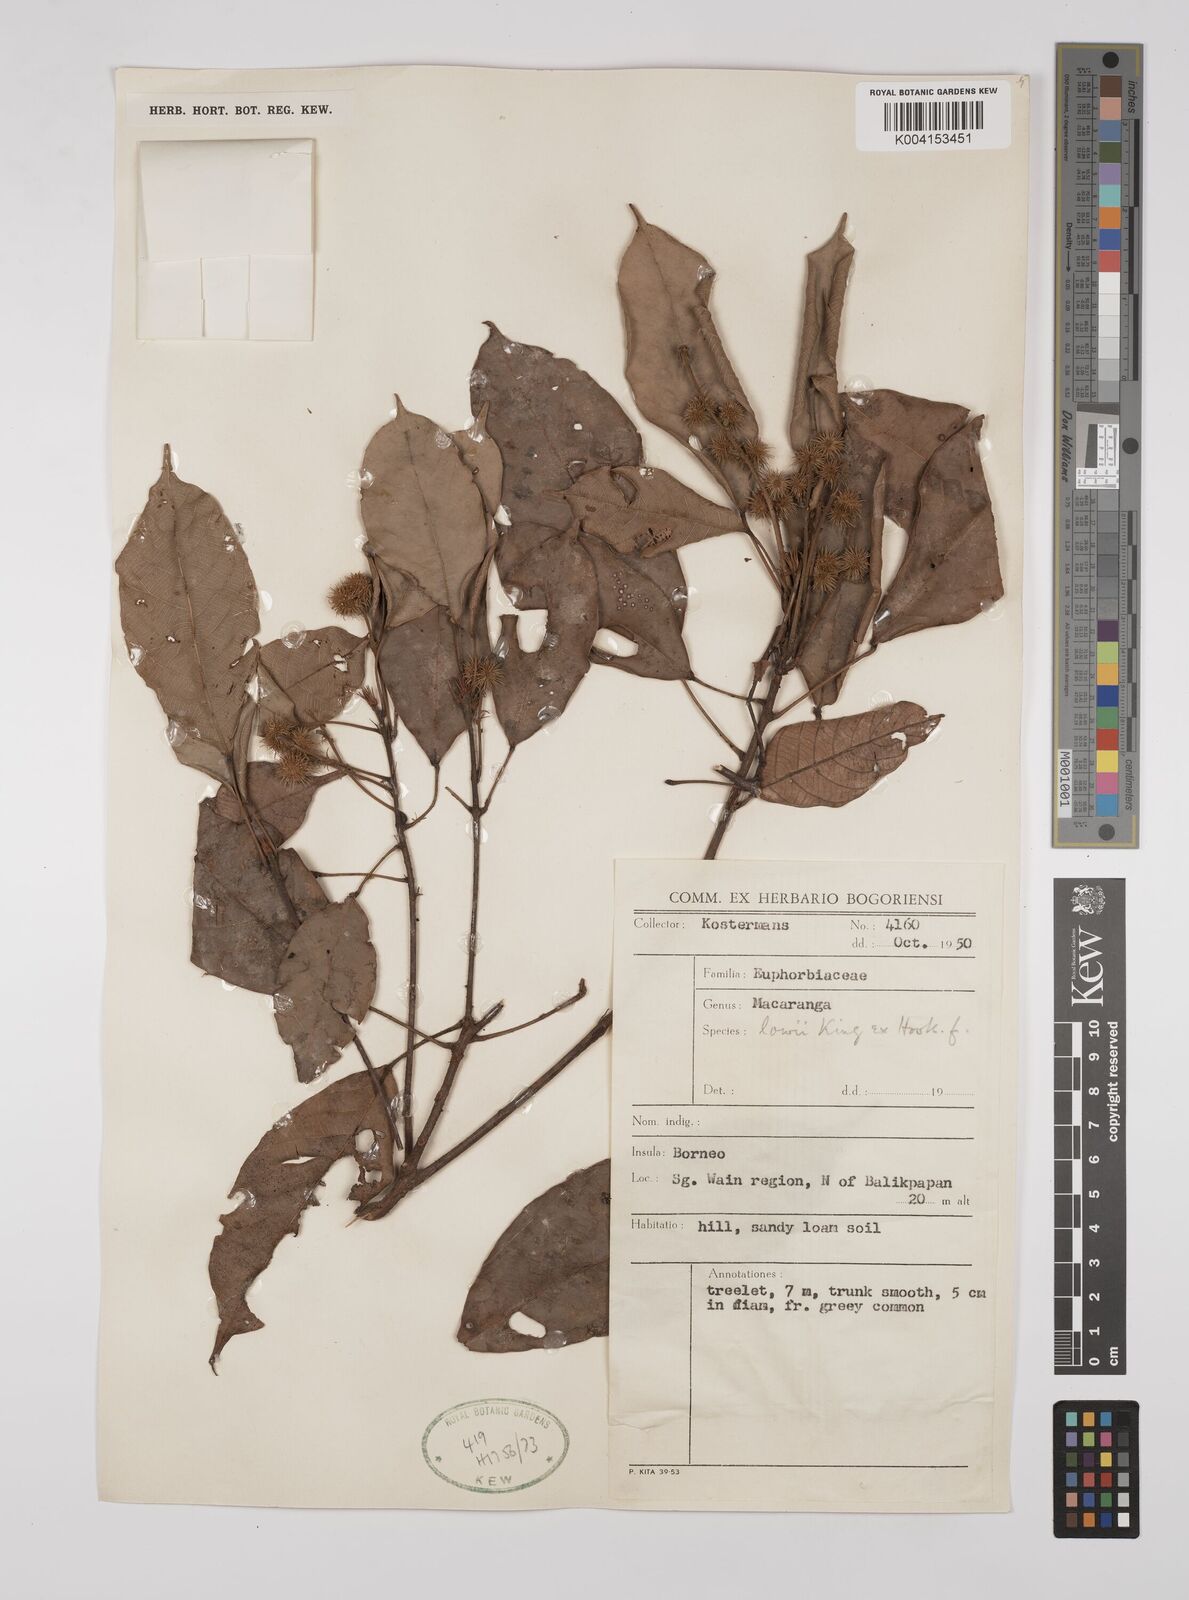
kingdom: Plantae
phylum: Tracheophyta
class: Magnoliopsida
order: Malpighiales
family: Euphorbiaceae
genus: Macaranga
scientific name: Macaranga lowii
